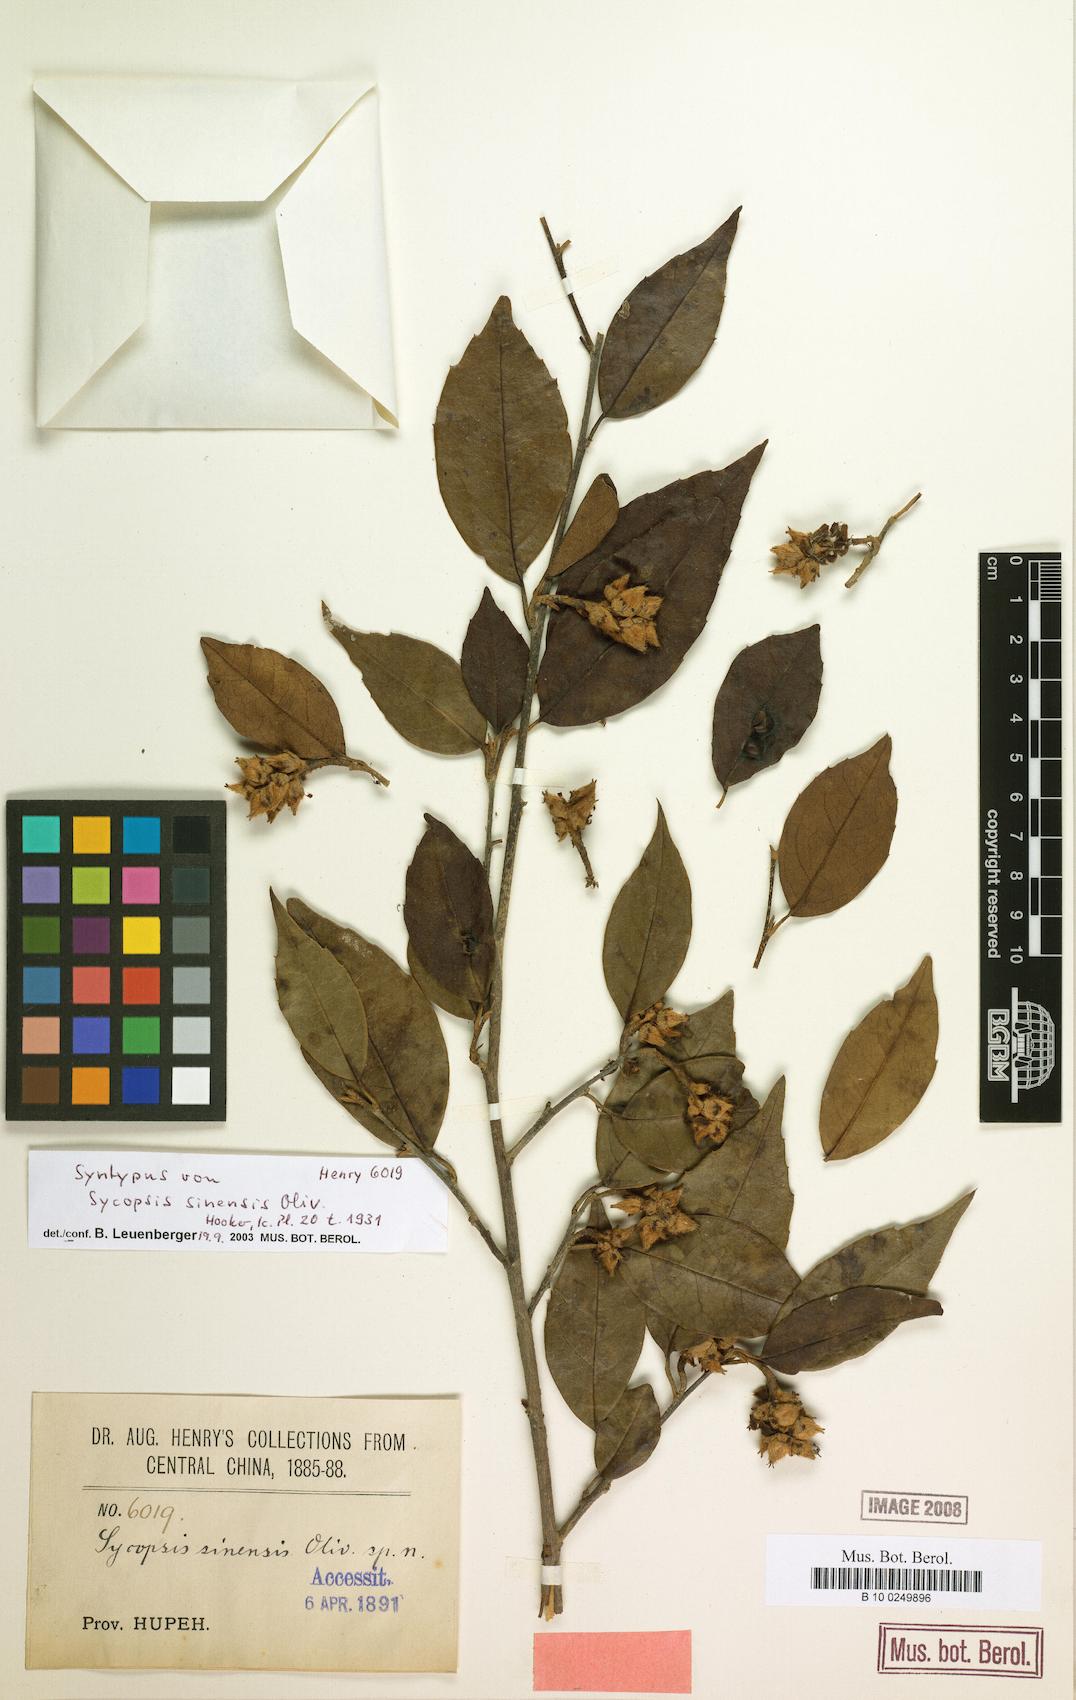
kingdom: Plantae
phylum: Tracheophyta
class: Magnoliopsida
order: Saxifragales
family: Hamamelidaceae
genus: Sycopsis
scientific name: Sycopsis sinensis
